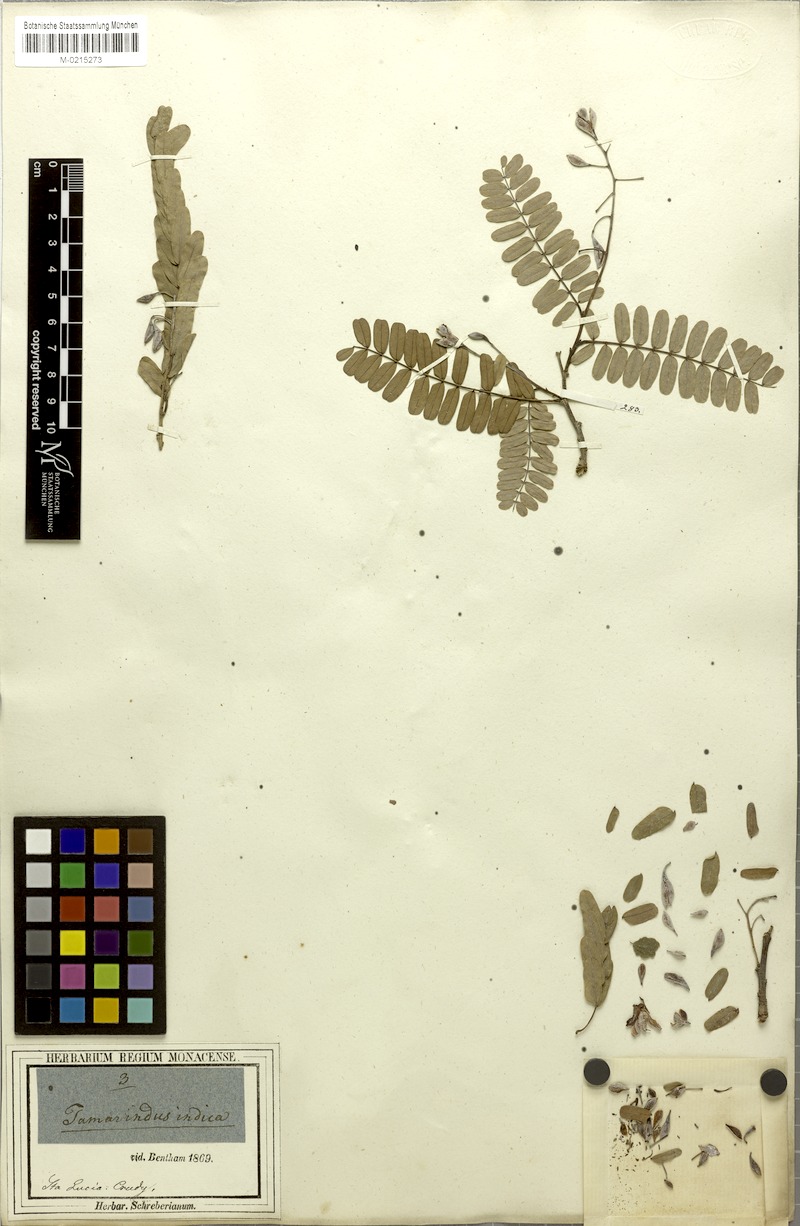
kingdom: Plantae
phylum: Tracheophyta
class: Magnoliopsida
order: Fabales
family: Fabaceae
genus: Tamarindus
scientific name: Tamarindus indica
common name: Tamarind
